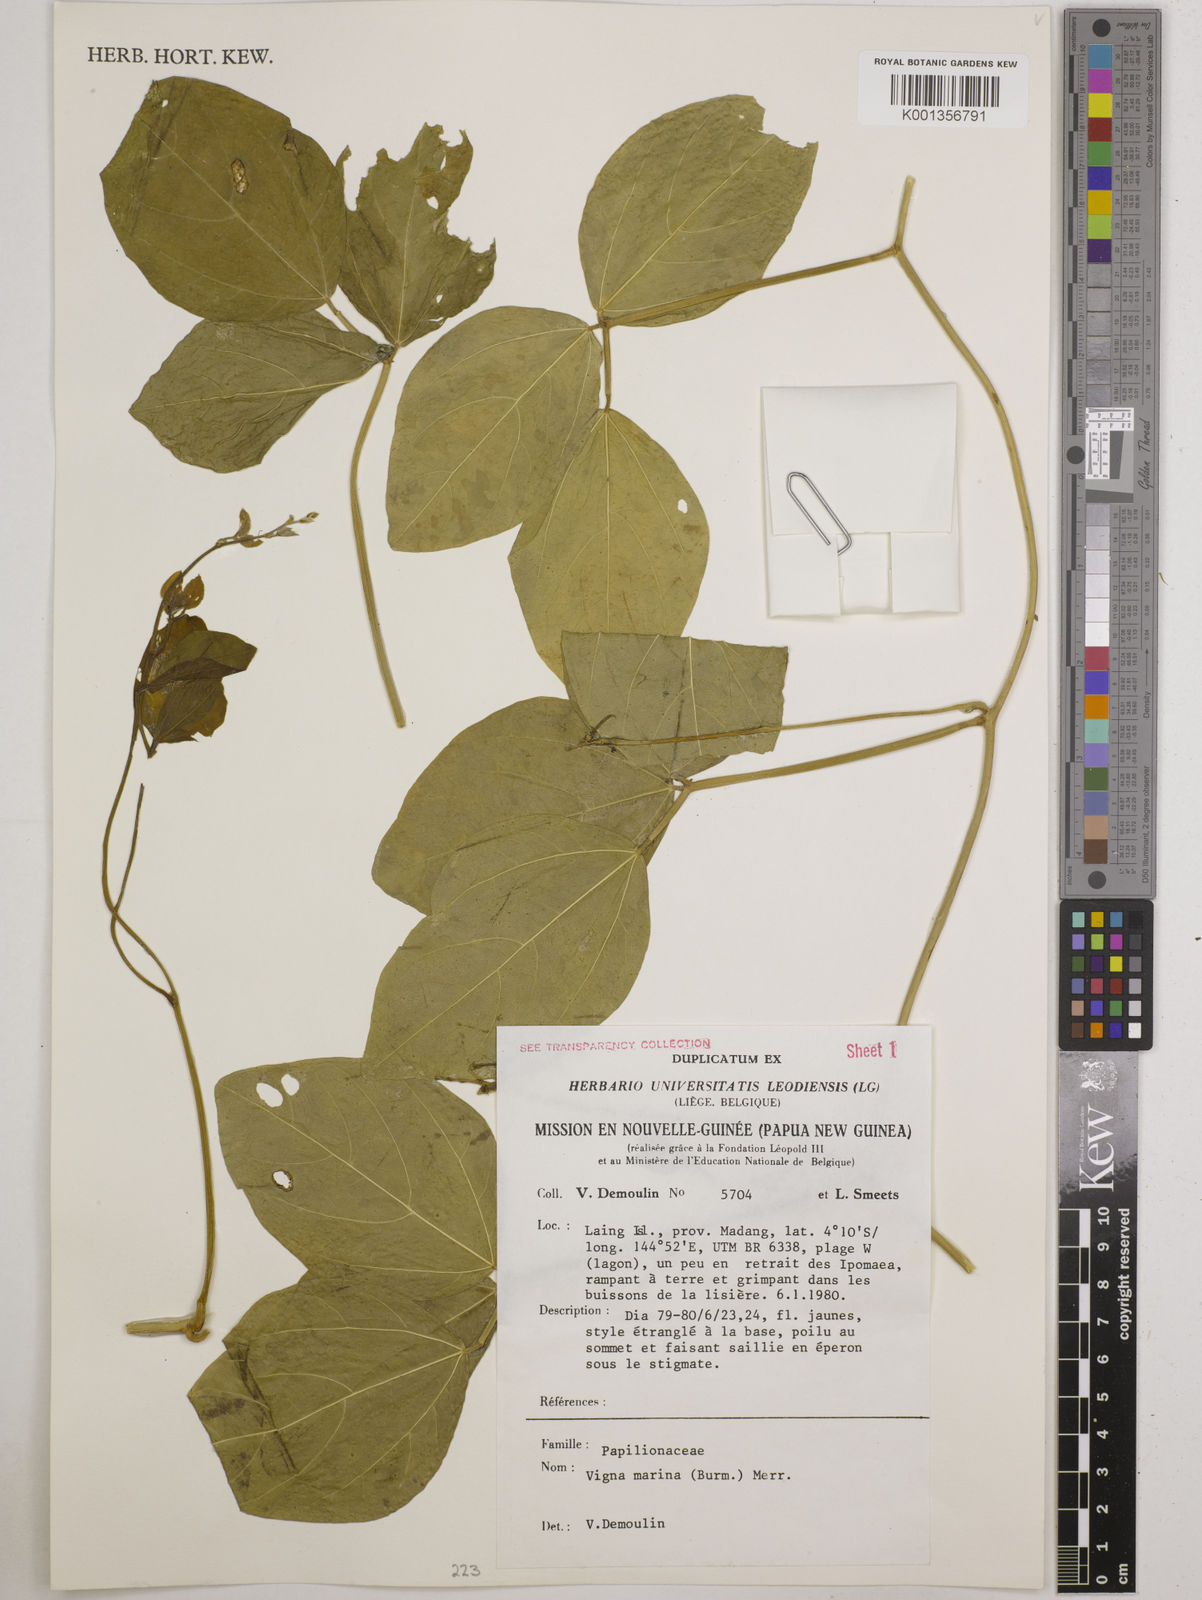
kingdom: Plantae
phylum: Tracheophyta
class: Magnoliopsida
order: Fabales
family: Fabaceae
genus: Vigna
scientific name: Vigna marina
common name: Dune-bean
